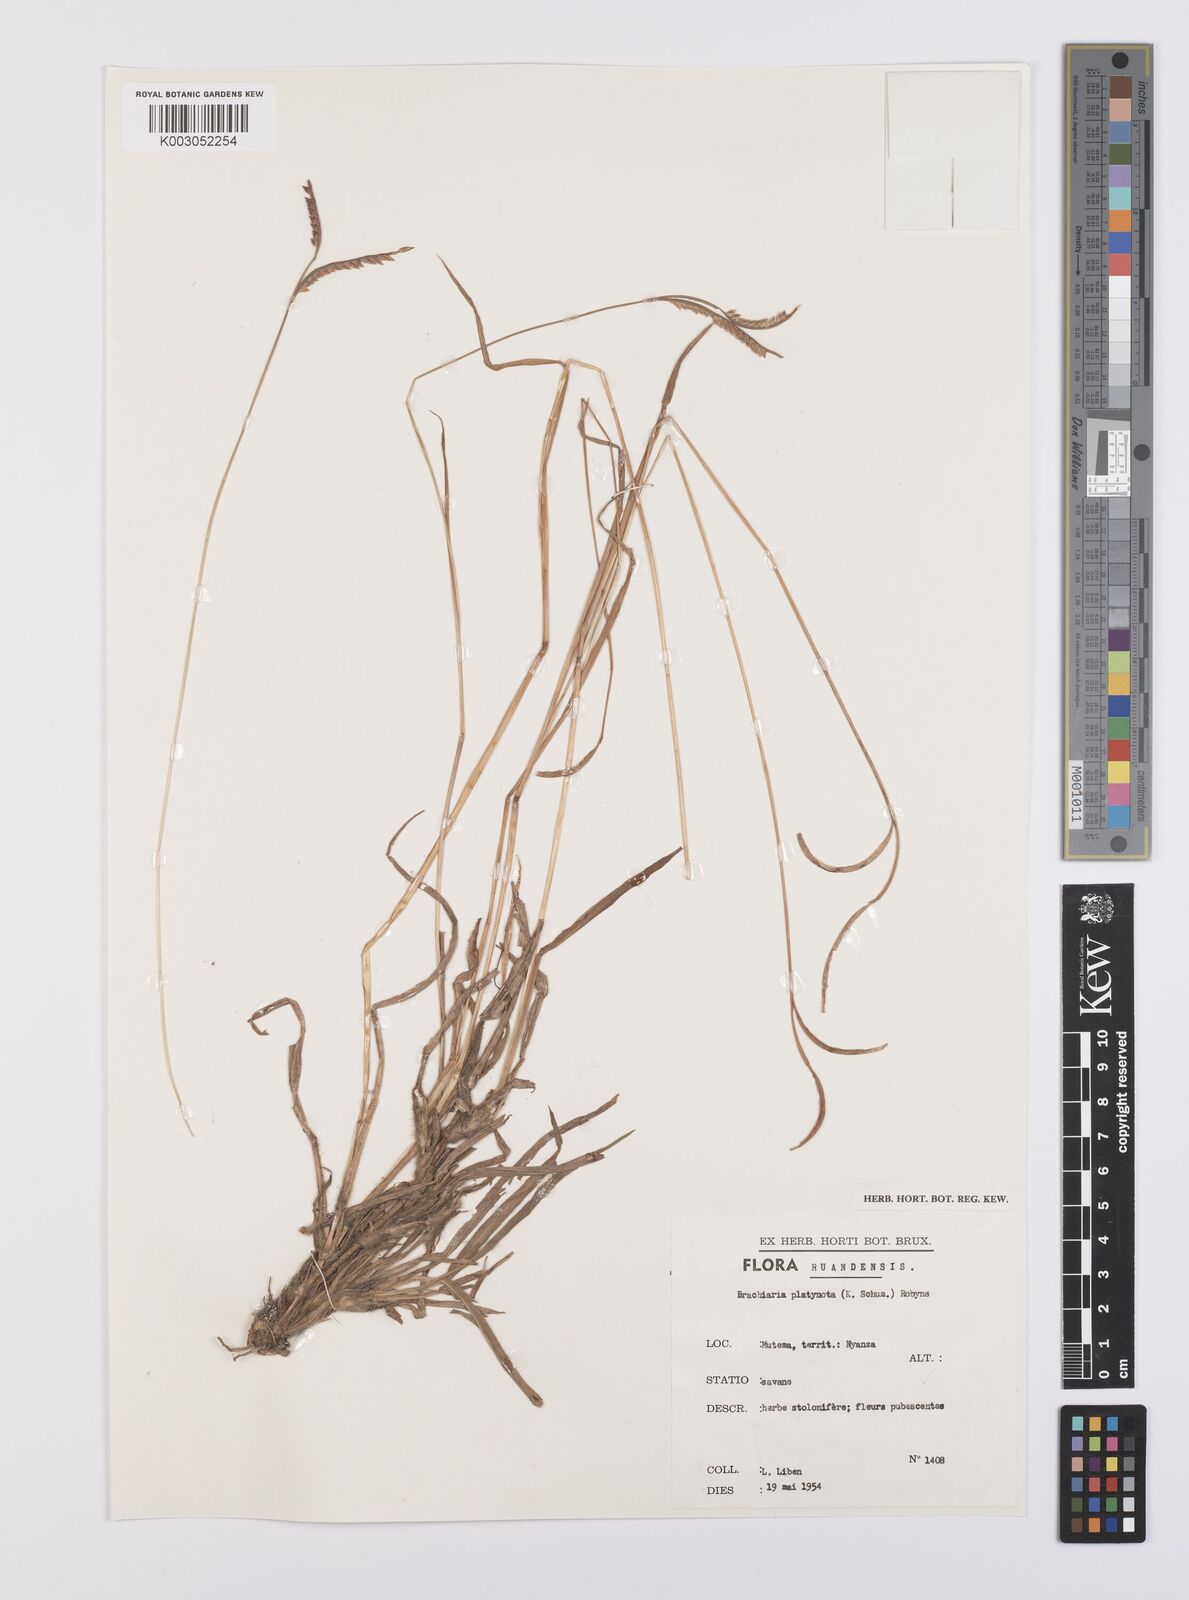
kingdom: Plantae
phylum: Tracheophyta
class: Liliopsida
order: Poales
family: Poaceae
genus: Urochloa
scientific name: Urochloa platynota
